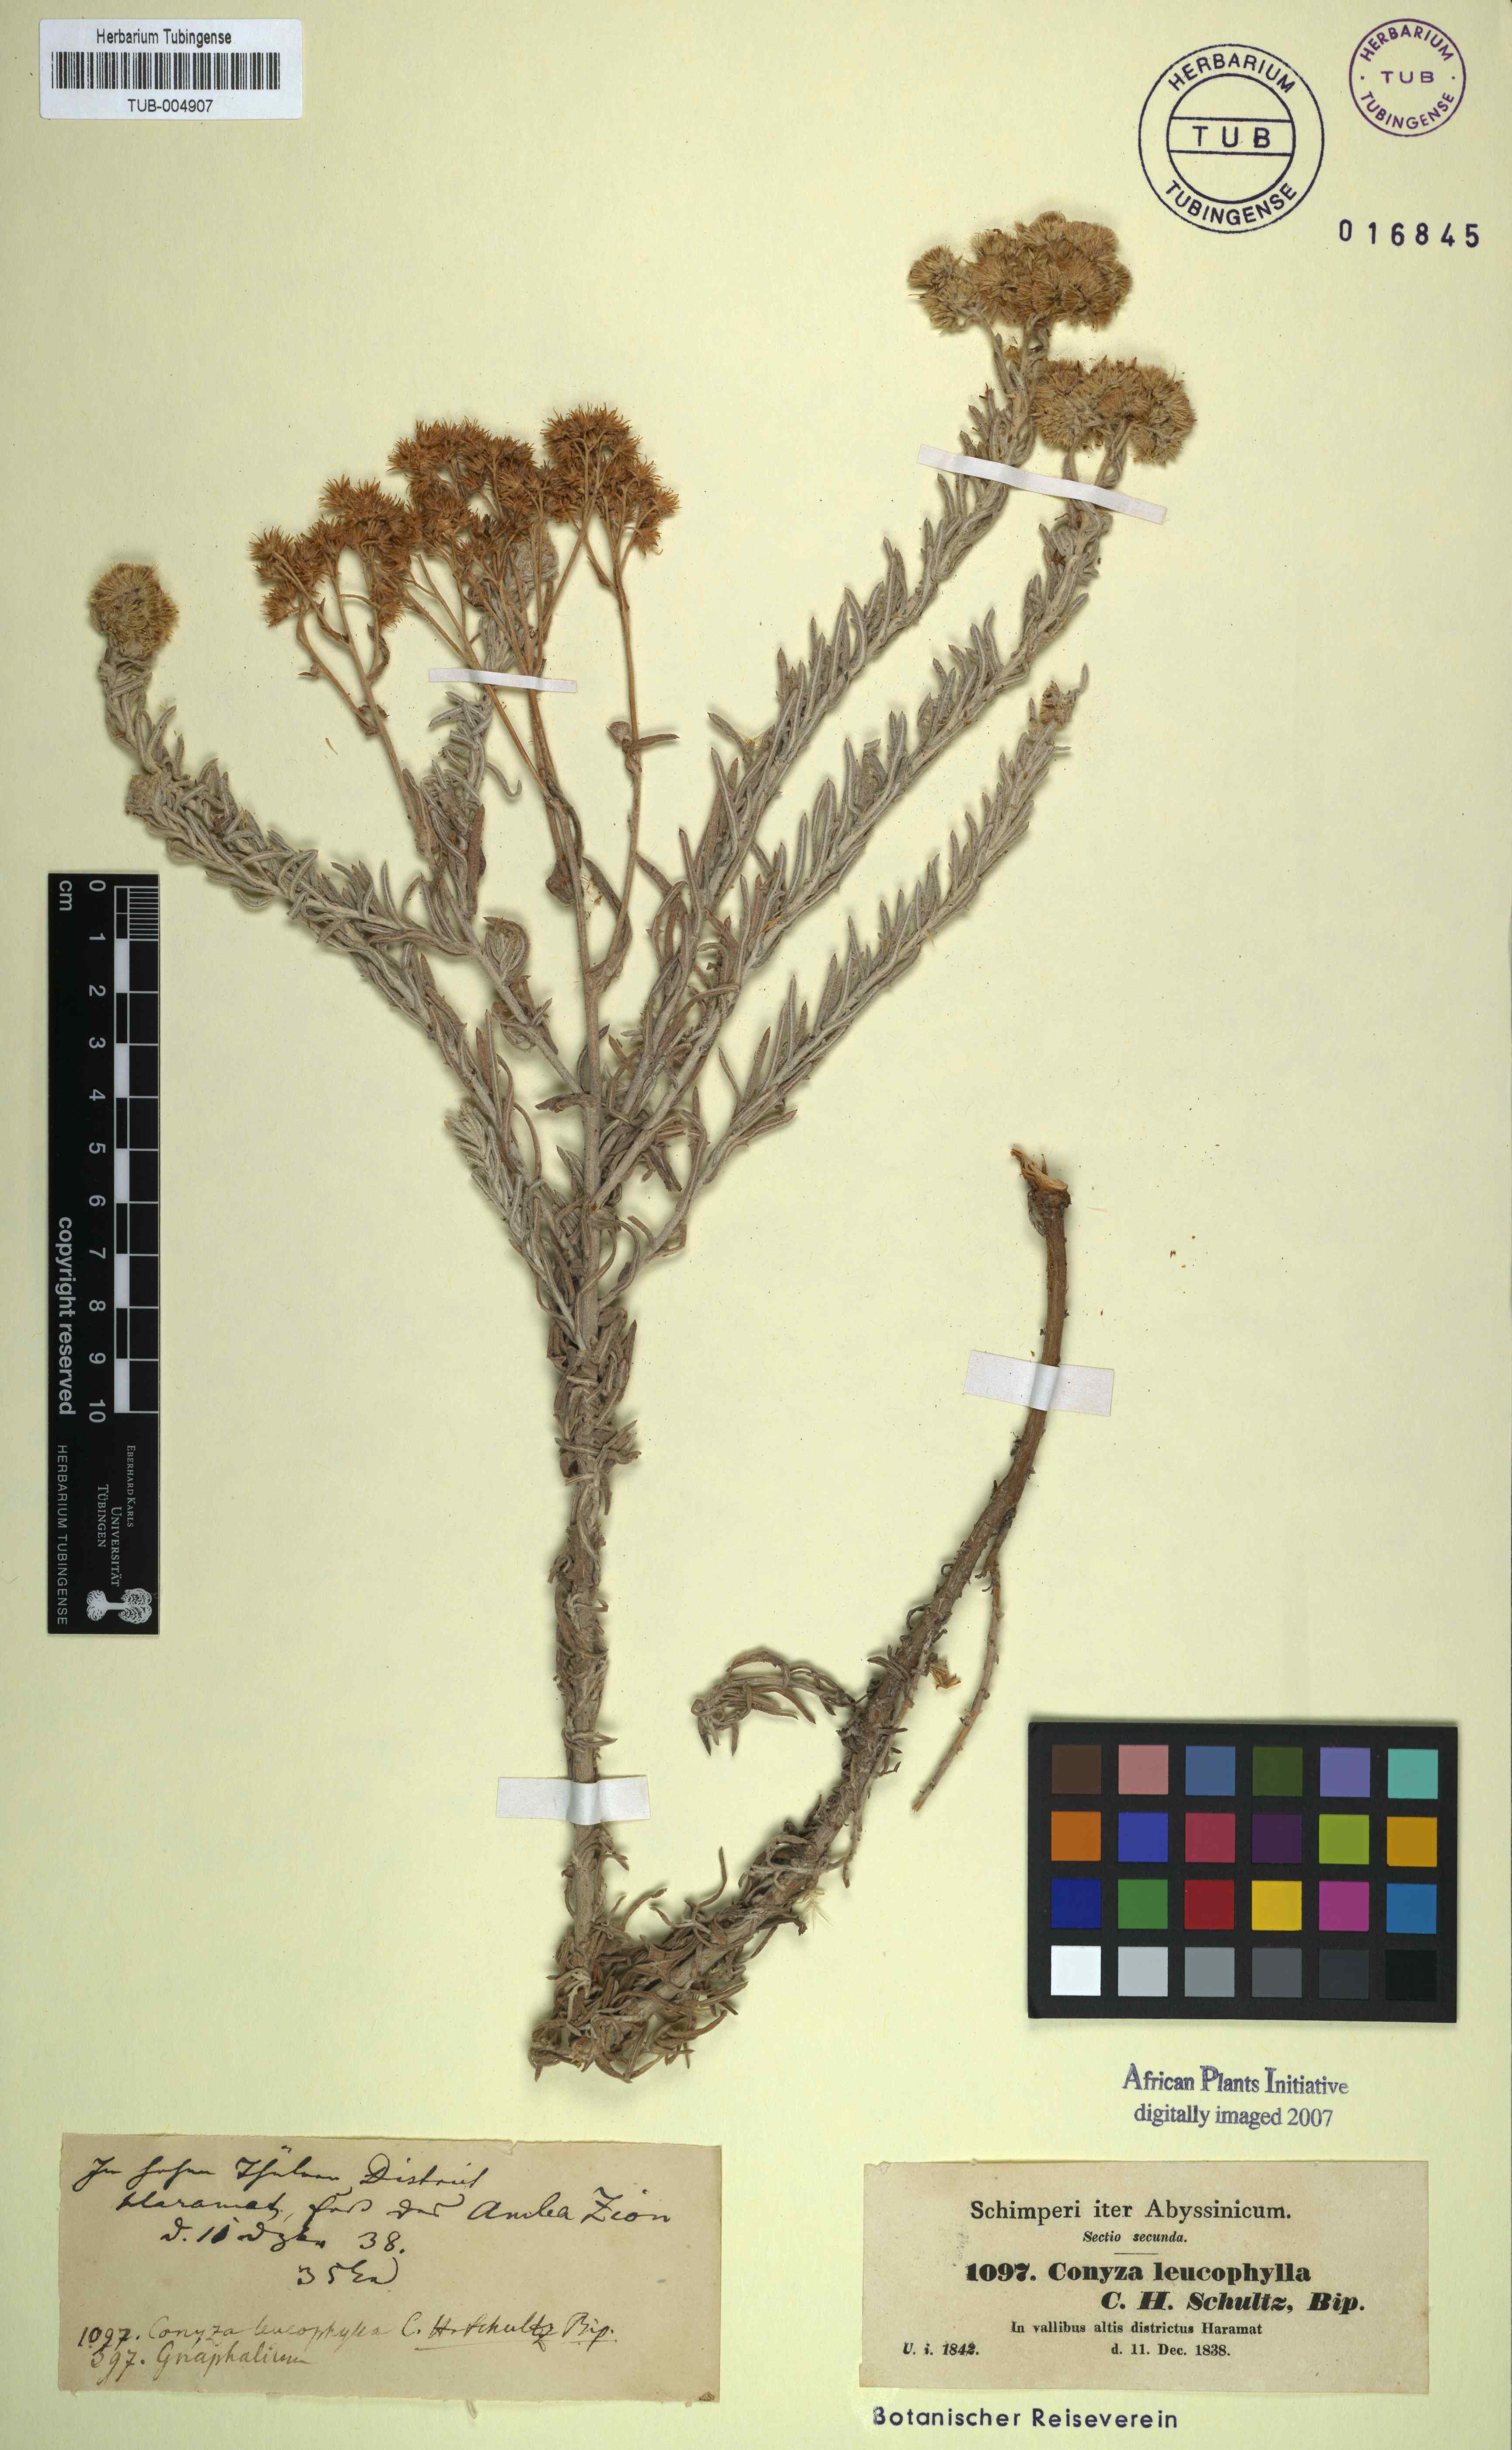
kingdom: Plantae
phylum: Tracheophyta
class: Magnoliopsida
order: Asterales
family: Asteraceae
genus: Conyza
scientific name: Conyza incana
